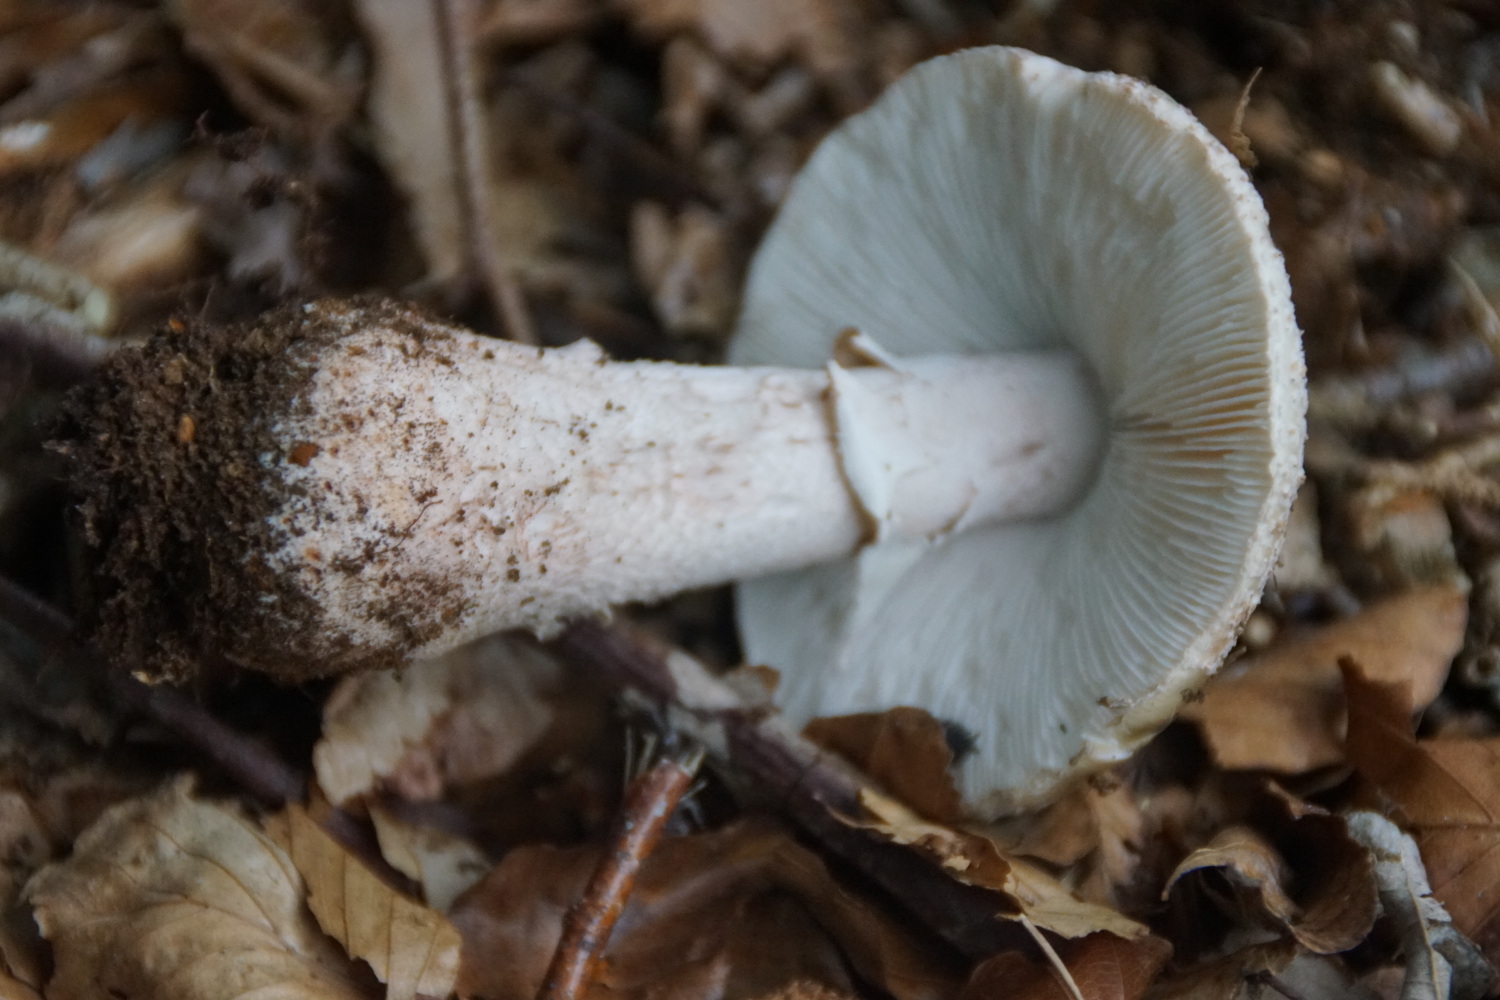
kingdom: Fungi
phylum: Basidiomycota
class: Agaricomycetes
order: Agaricales
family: Amanitaceae
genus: Amanita
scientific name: Amanita rubescens
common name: rødmende fluesvamp
